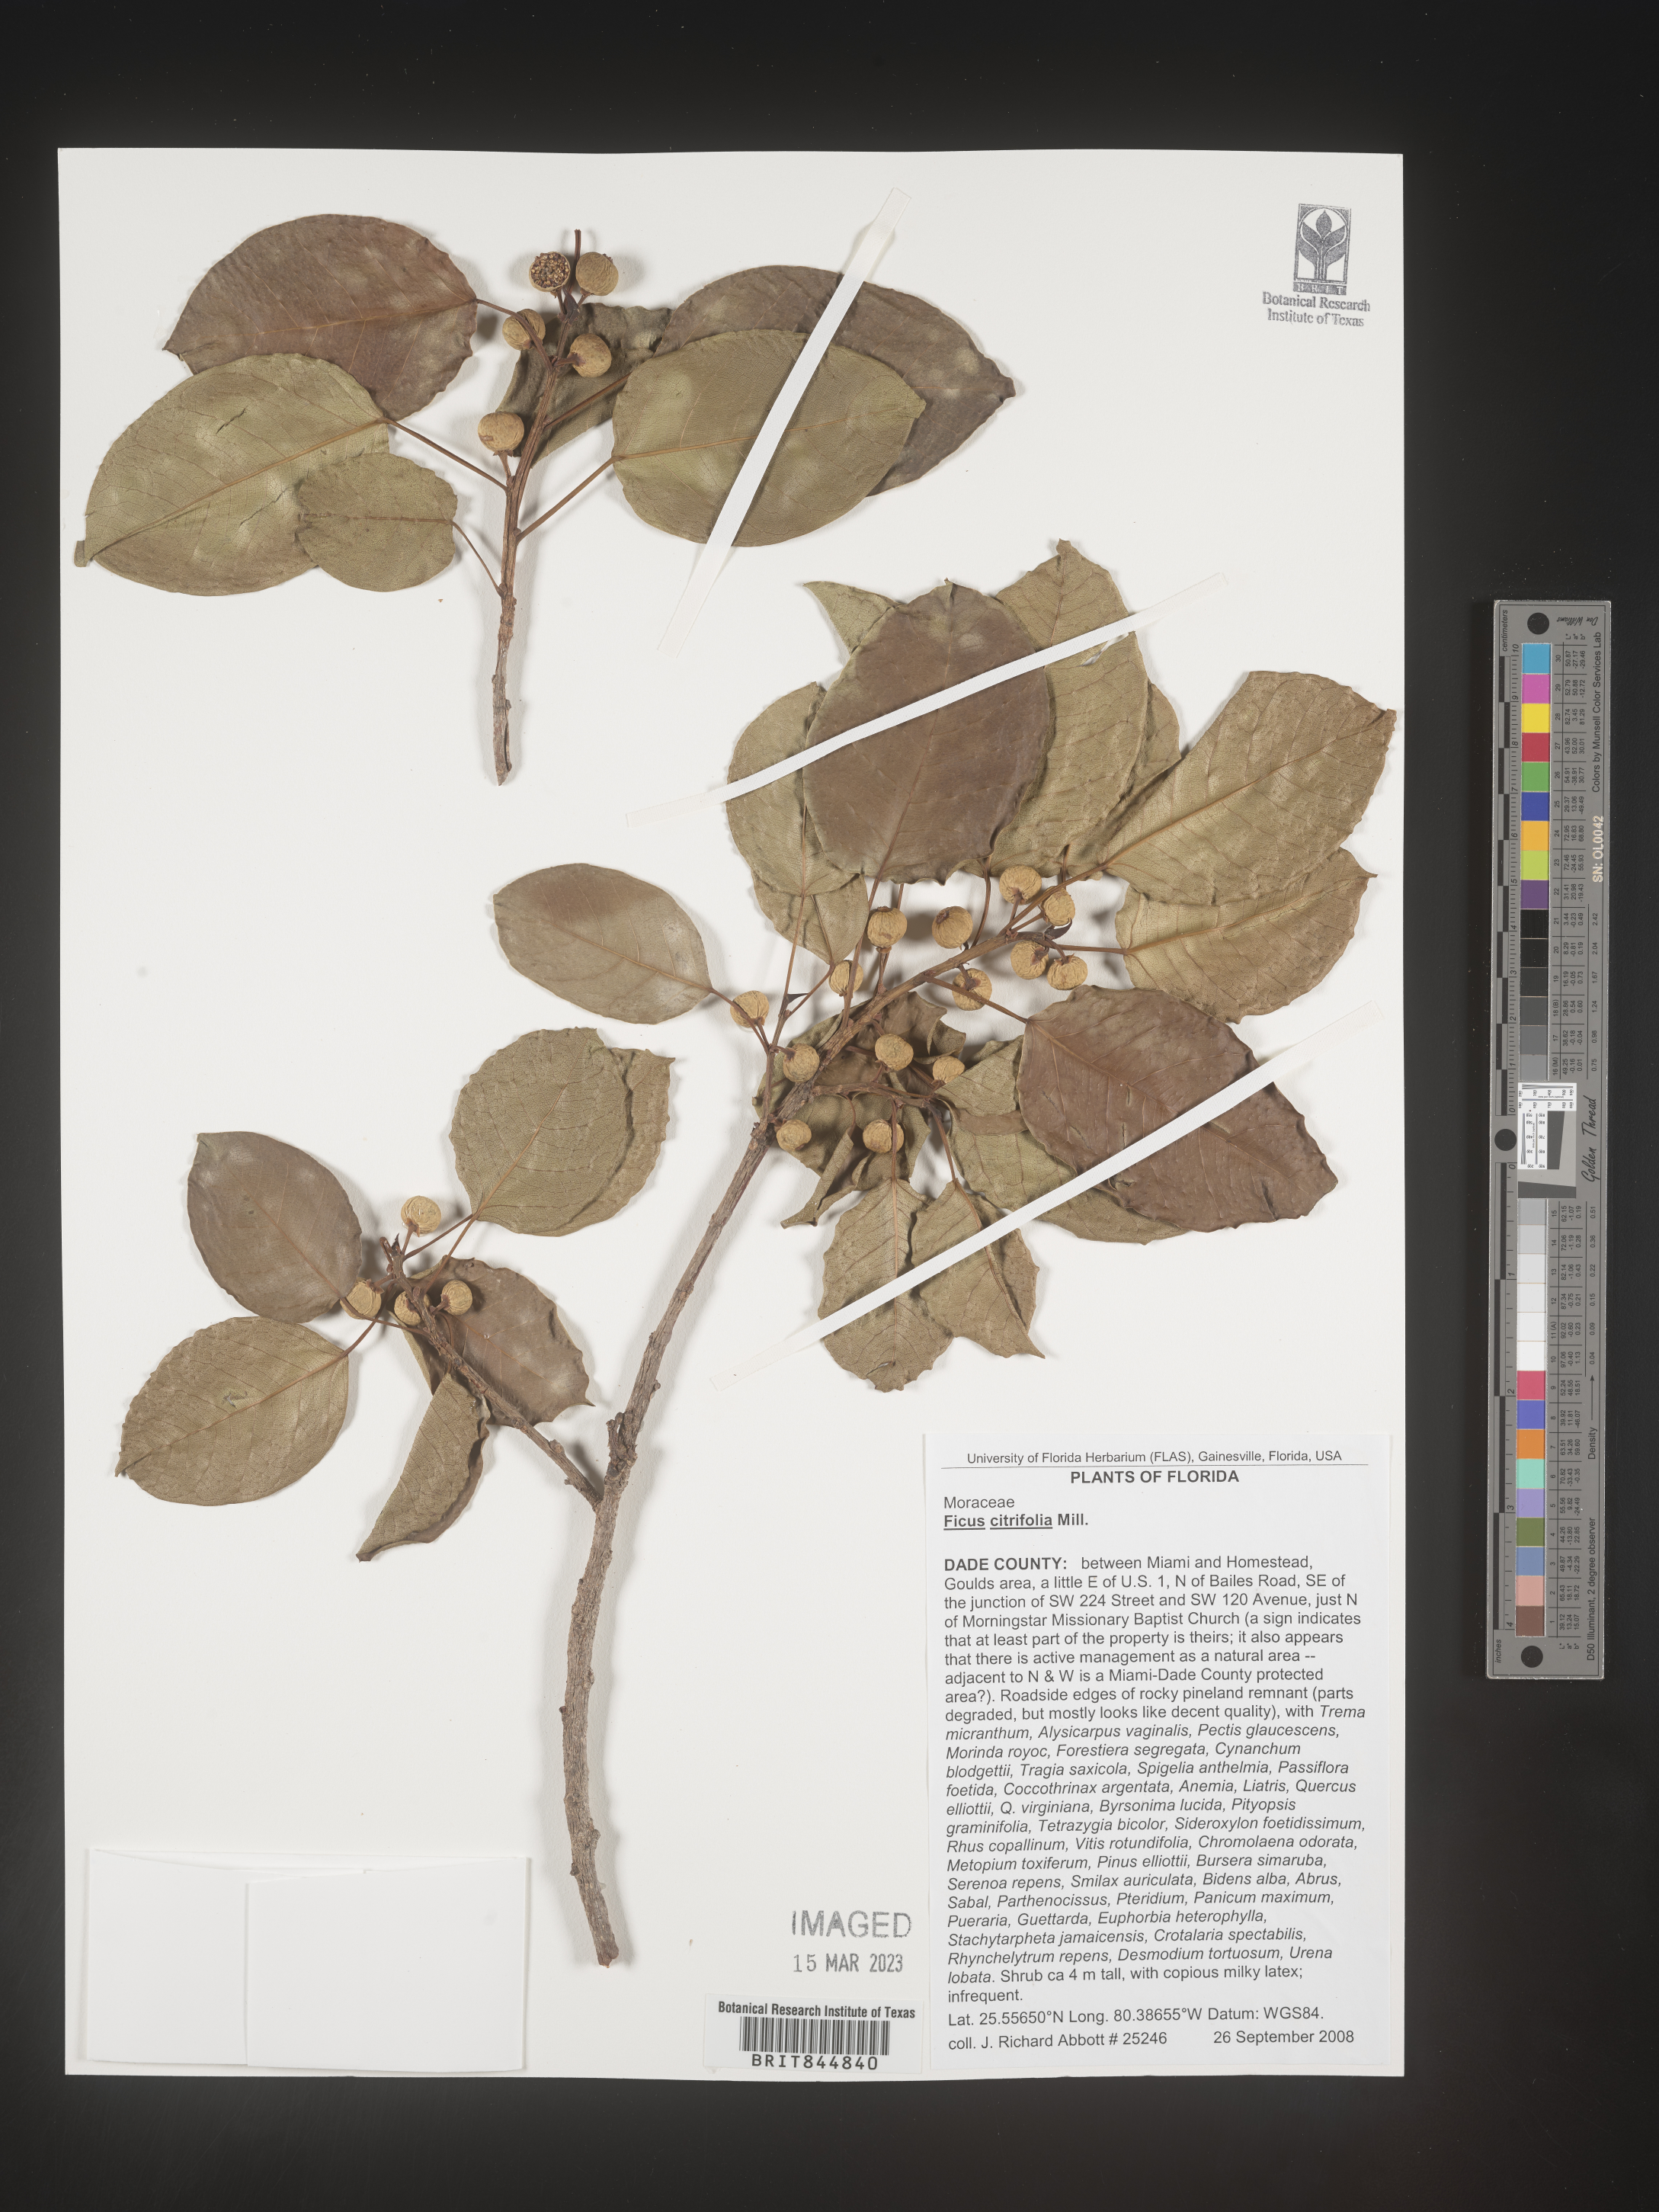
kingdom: Plantae
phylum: Tracheophyta
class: Magnoliopsida
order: Rosales
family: Moraceae
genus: Ficus
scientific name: Ficus
